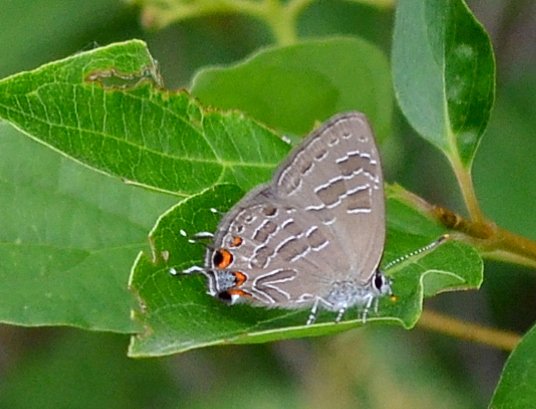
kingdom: Animalia
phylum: Arthropoda
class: Insecta
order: Lepidoptera
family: Lycaenidae
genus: Satyrium
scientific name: Satyrium liparops
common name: Striped Hairstreak
